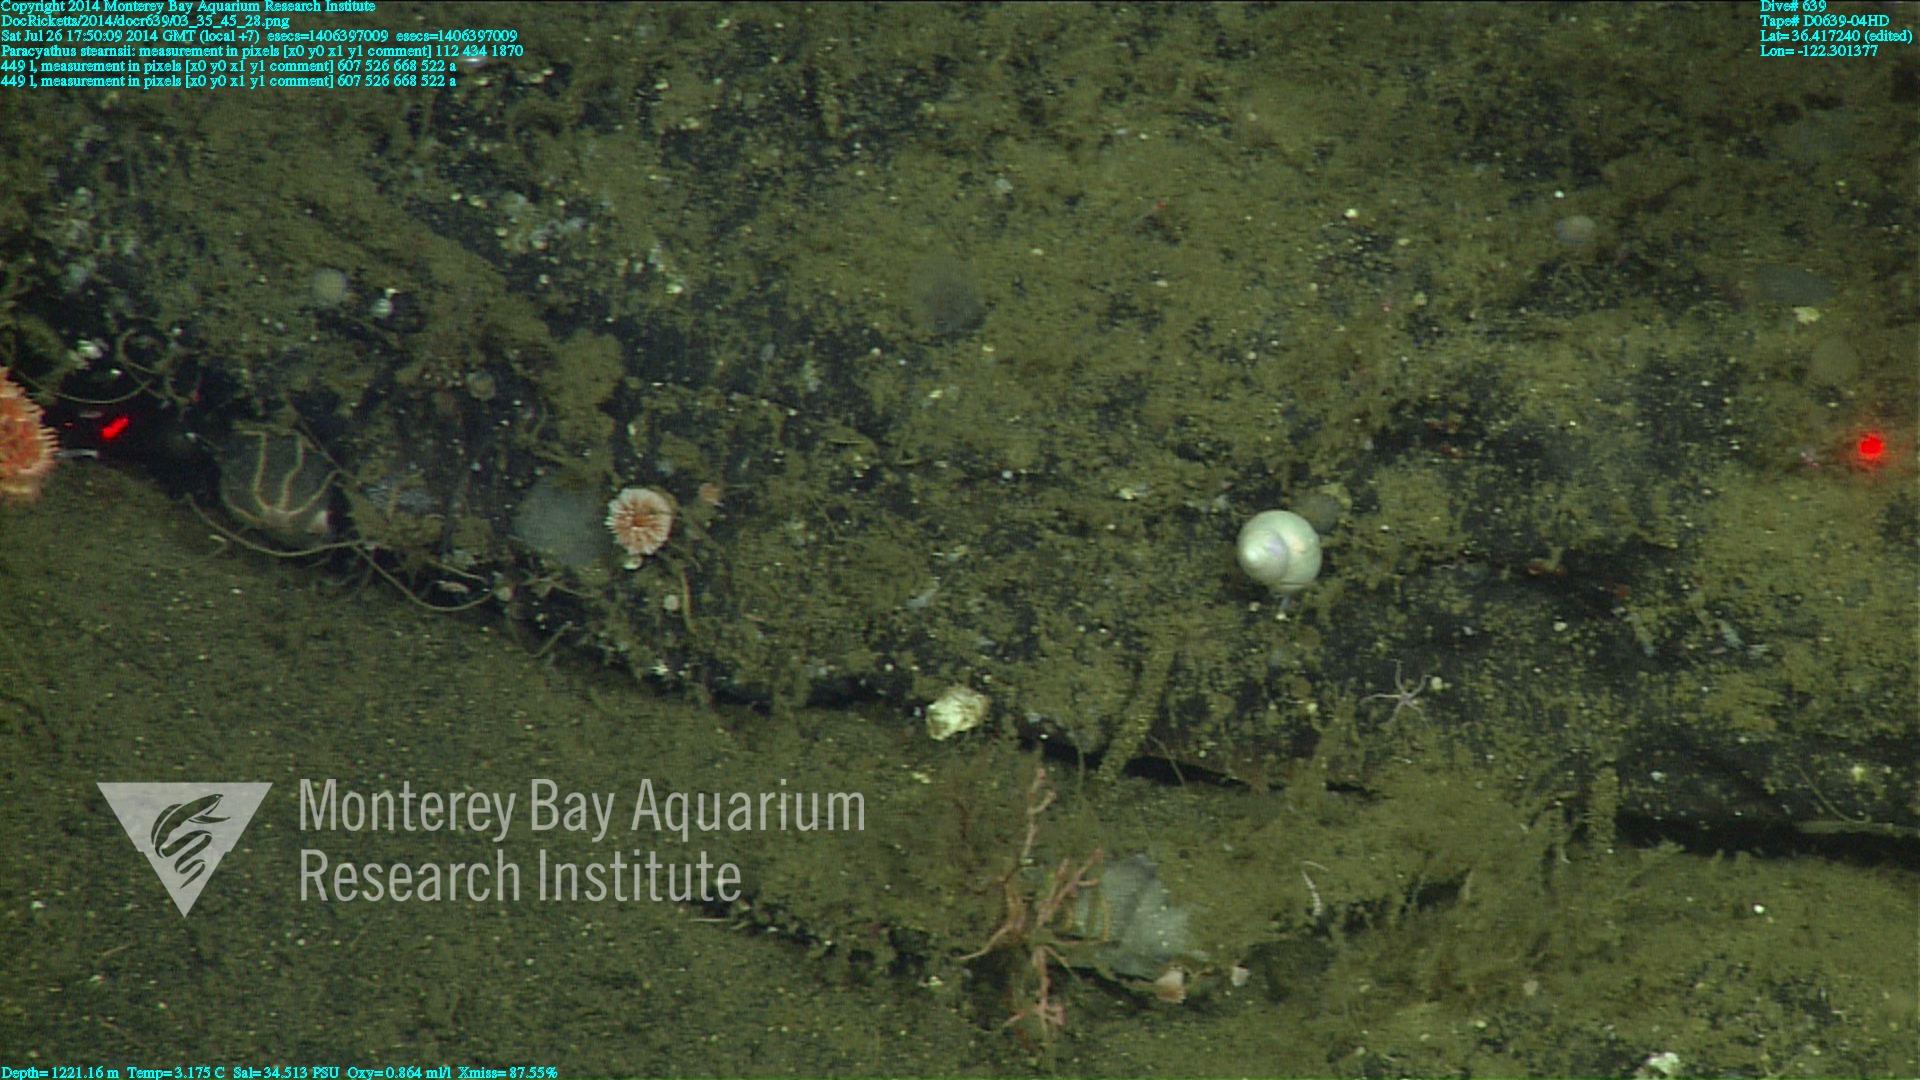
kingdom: Animalia
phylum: Cnidaria
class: Anthozoa
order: Scleractinia
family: Caryophylliidae
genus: Paracyathus
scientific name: Paracyathus stearnsii
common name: Brown stony coral
